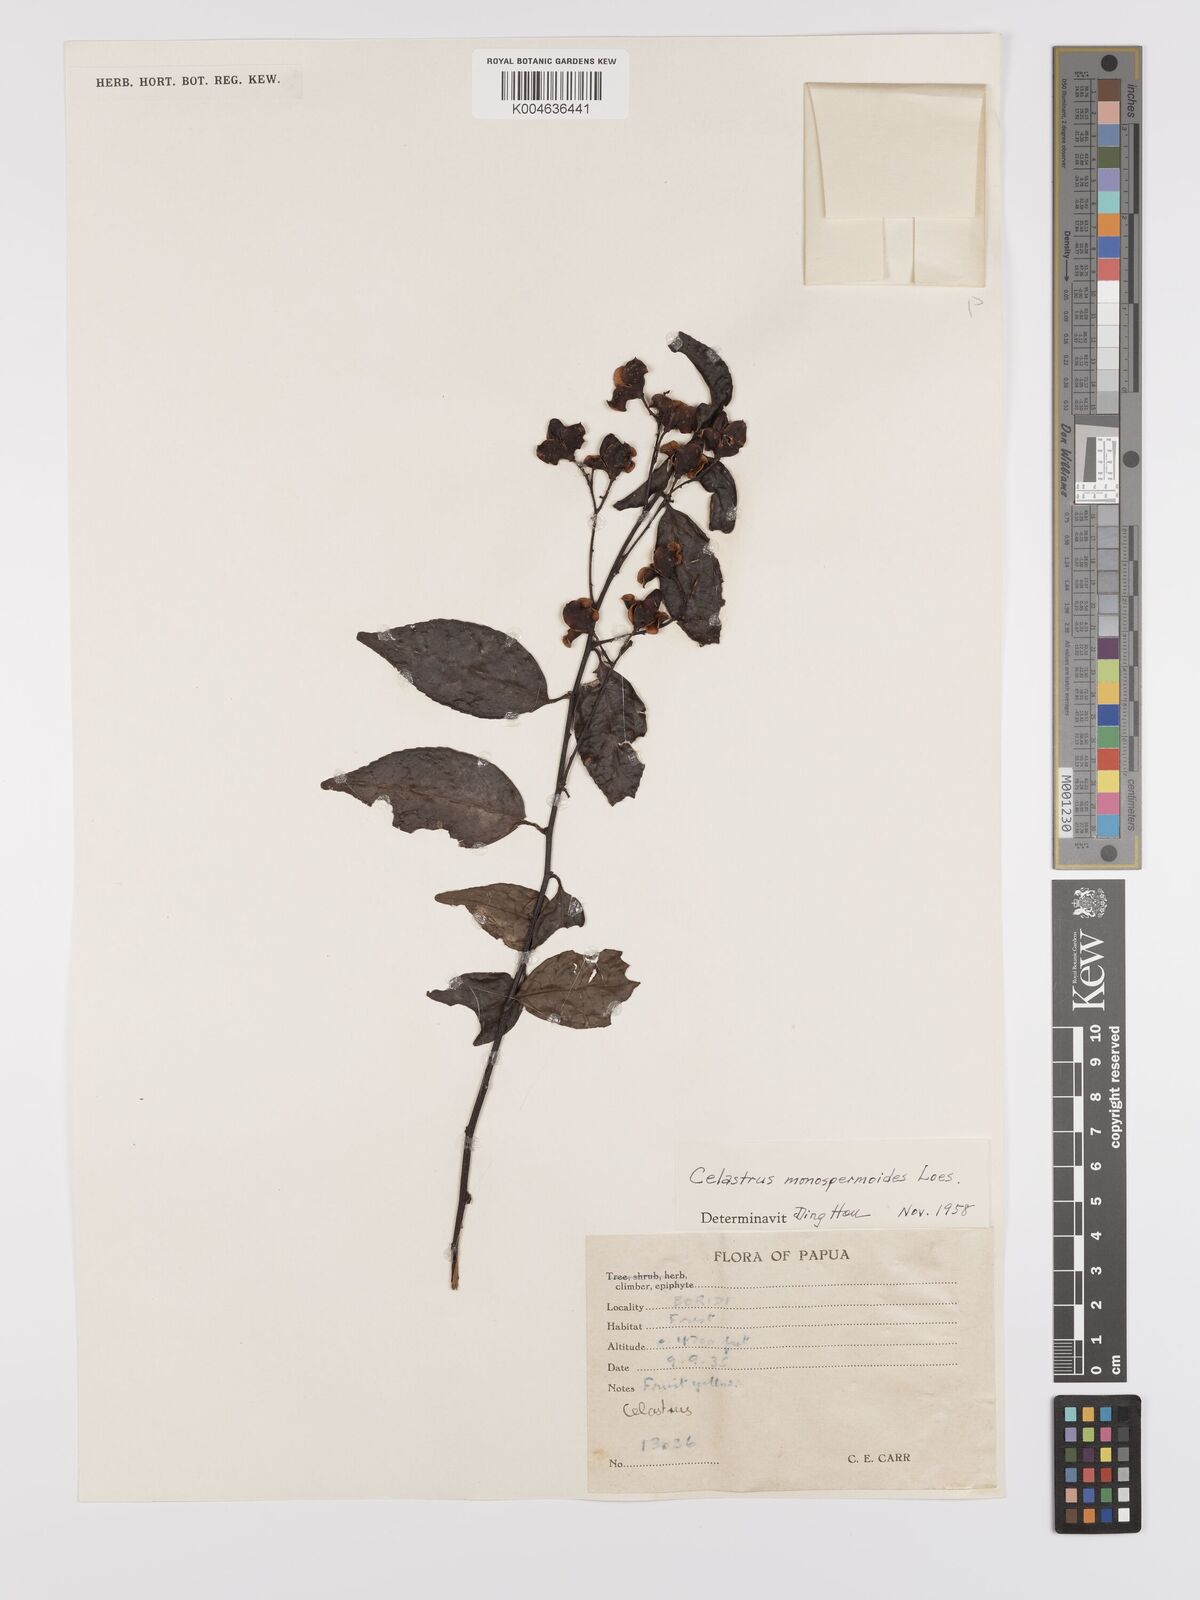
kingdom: Plantae
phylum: Tracheophyta
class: Magnoliopsida
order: Celastrales
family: Celastraceae
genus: Celastrus
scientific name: Celastrus monospermoides
